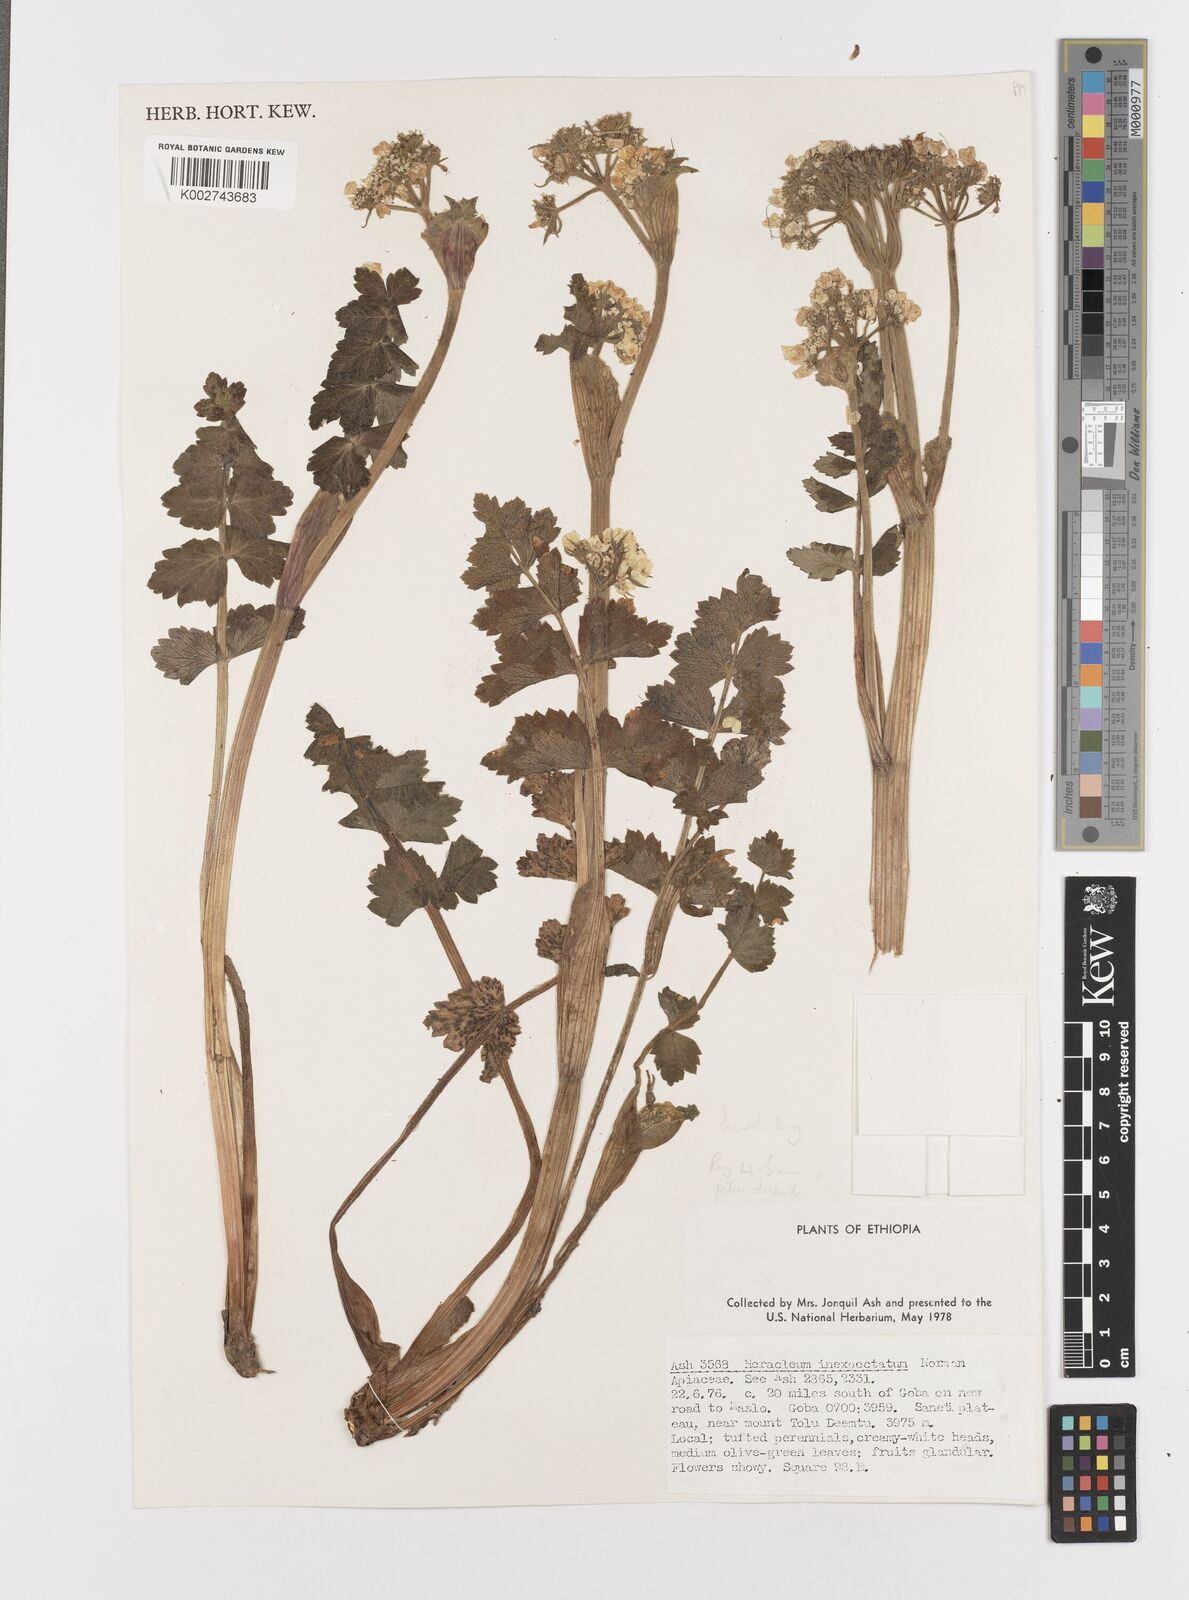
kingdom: Plantae
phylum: Tracheophyta
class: Magnoliopsida
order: Apiales
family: Apiaceae
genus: Heracleum
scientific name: Heracleum elgonense
